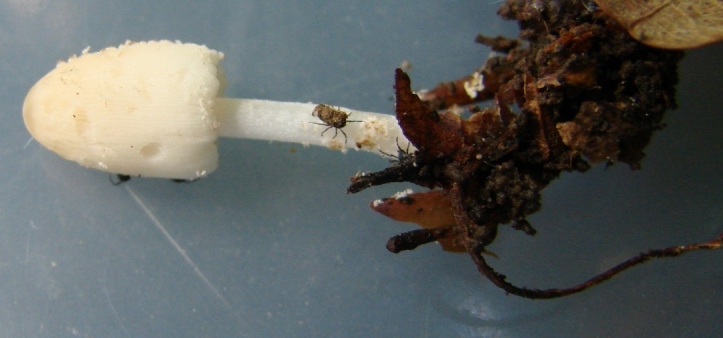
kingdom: Fungi
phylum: Basidiomycota
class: Agaricomycetes
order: Agaricales
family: Psathyrellaceae
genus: Coprinellus
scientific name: Coprinellus domesticus
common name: hus-blækhat
